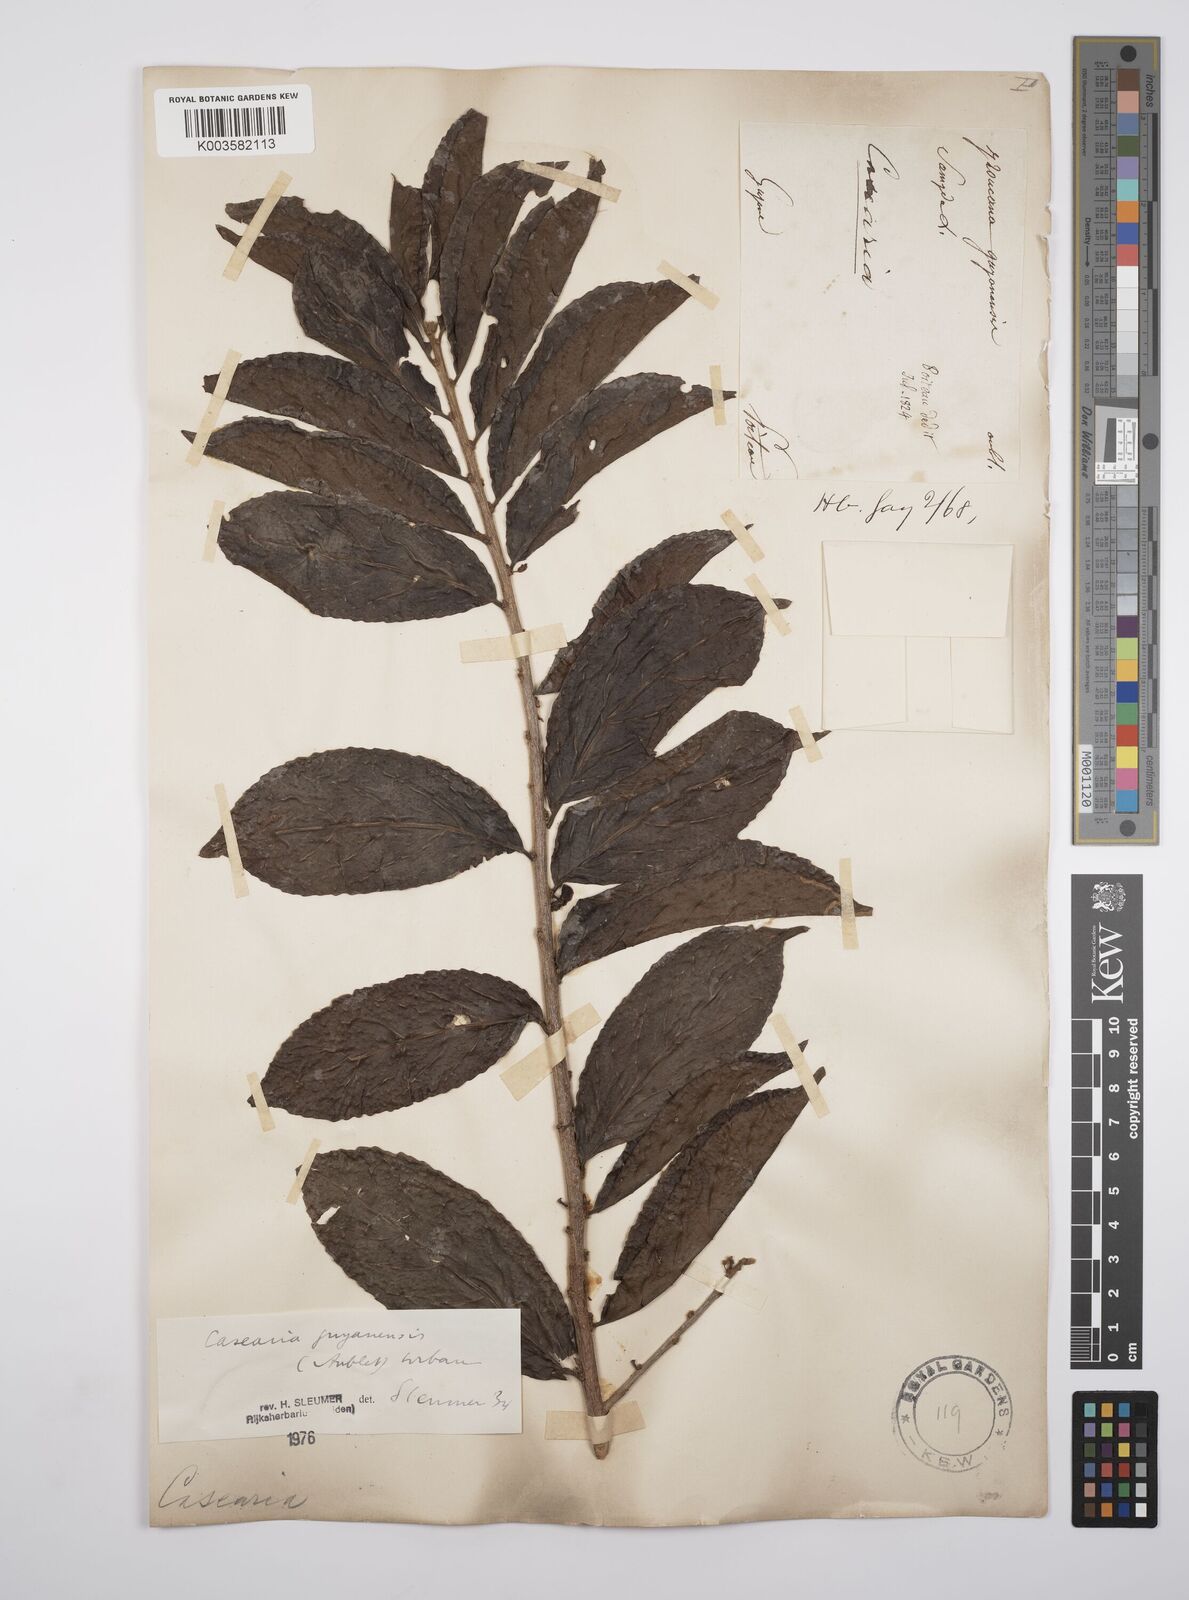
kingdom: Plantae
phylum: Tracheophyta
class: Magnoliopsida
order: Malpighiales
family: Salicaceae
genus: Casearia
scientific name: Casearia guianensis
